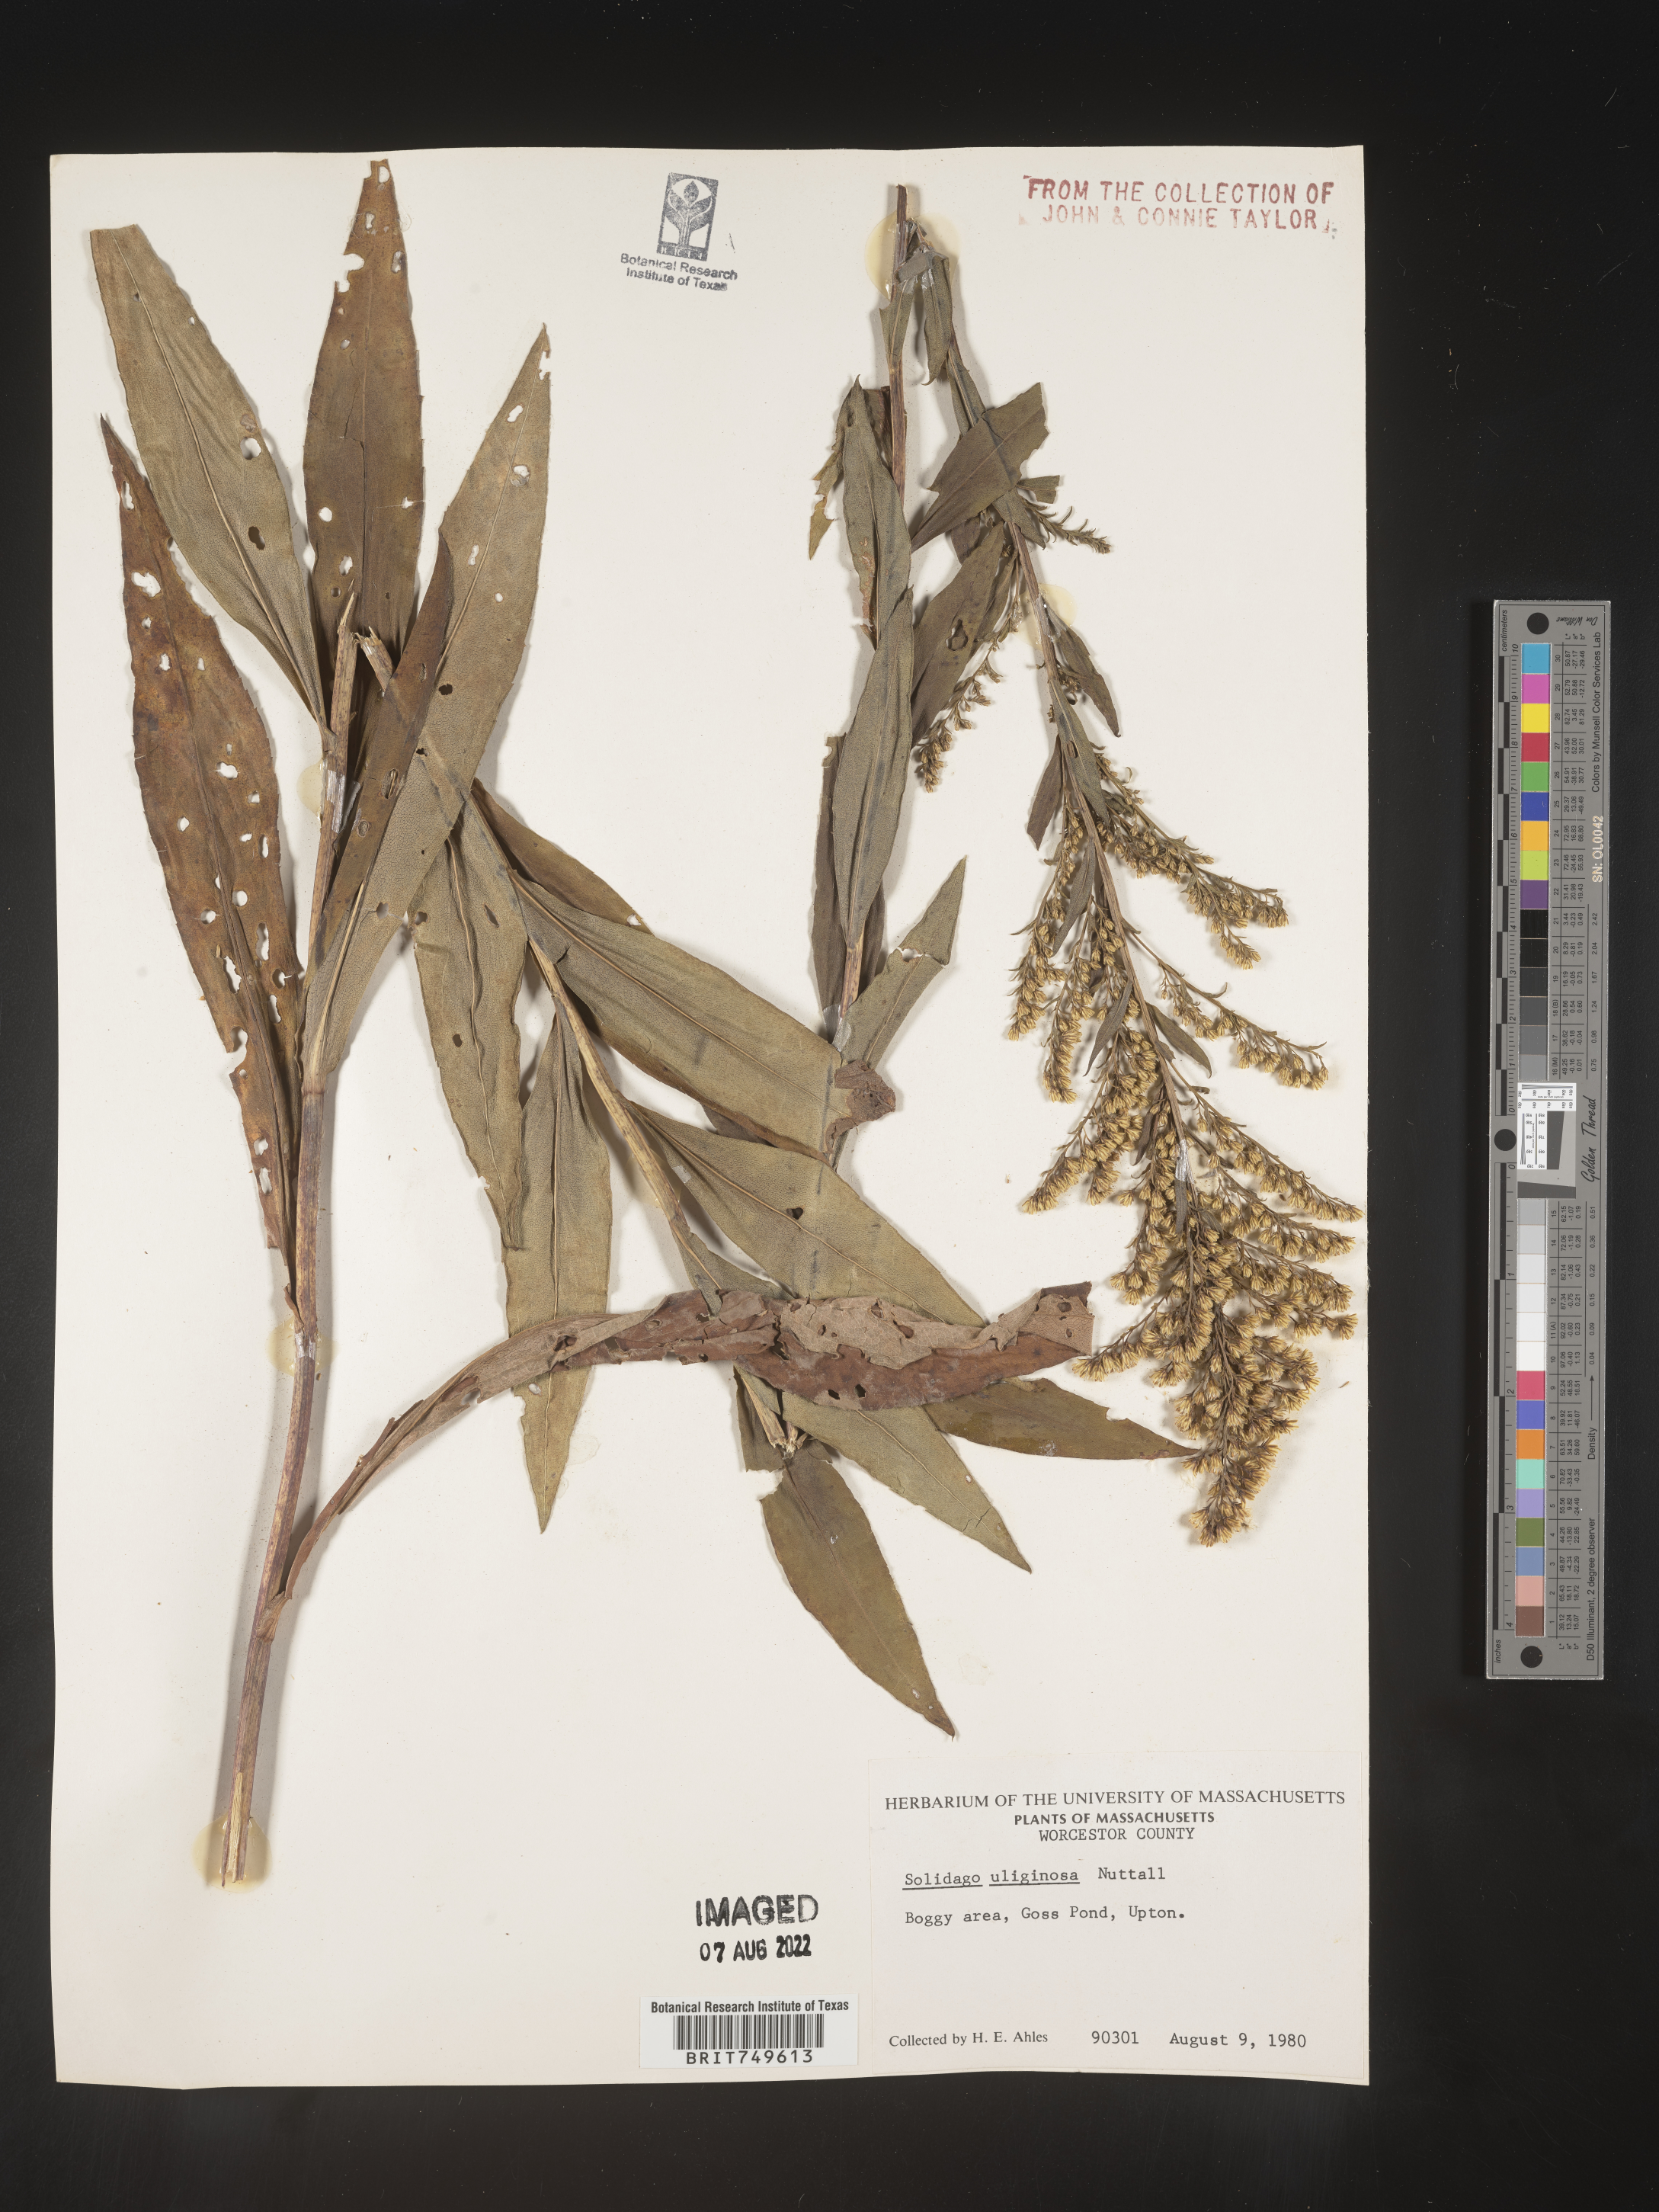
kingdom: Plantae
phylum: Tracheophyta
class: Magnoliopsida
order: Asterales
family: Asteraceae
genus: Solidago
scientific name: Solidago uliginosa
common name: Bog goldenrod
